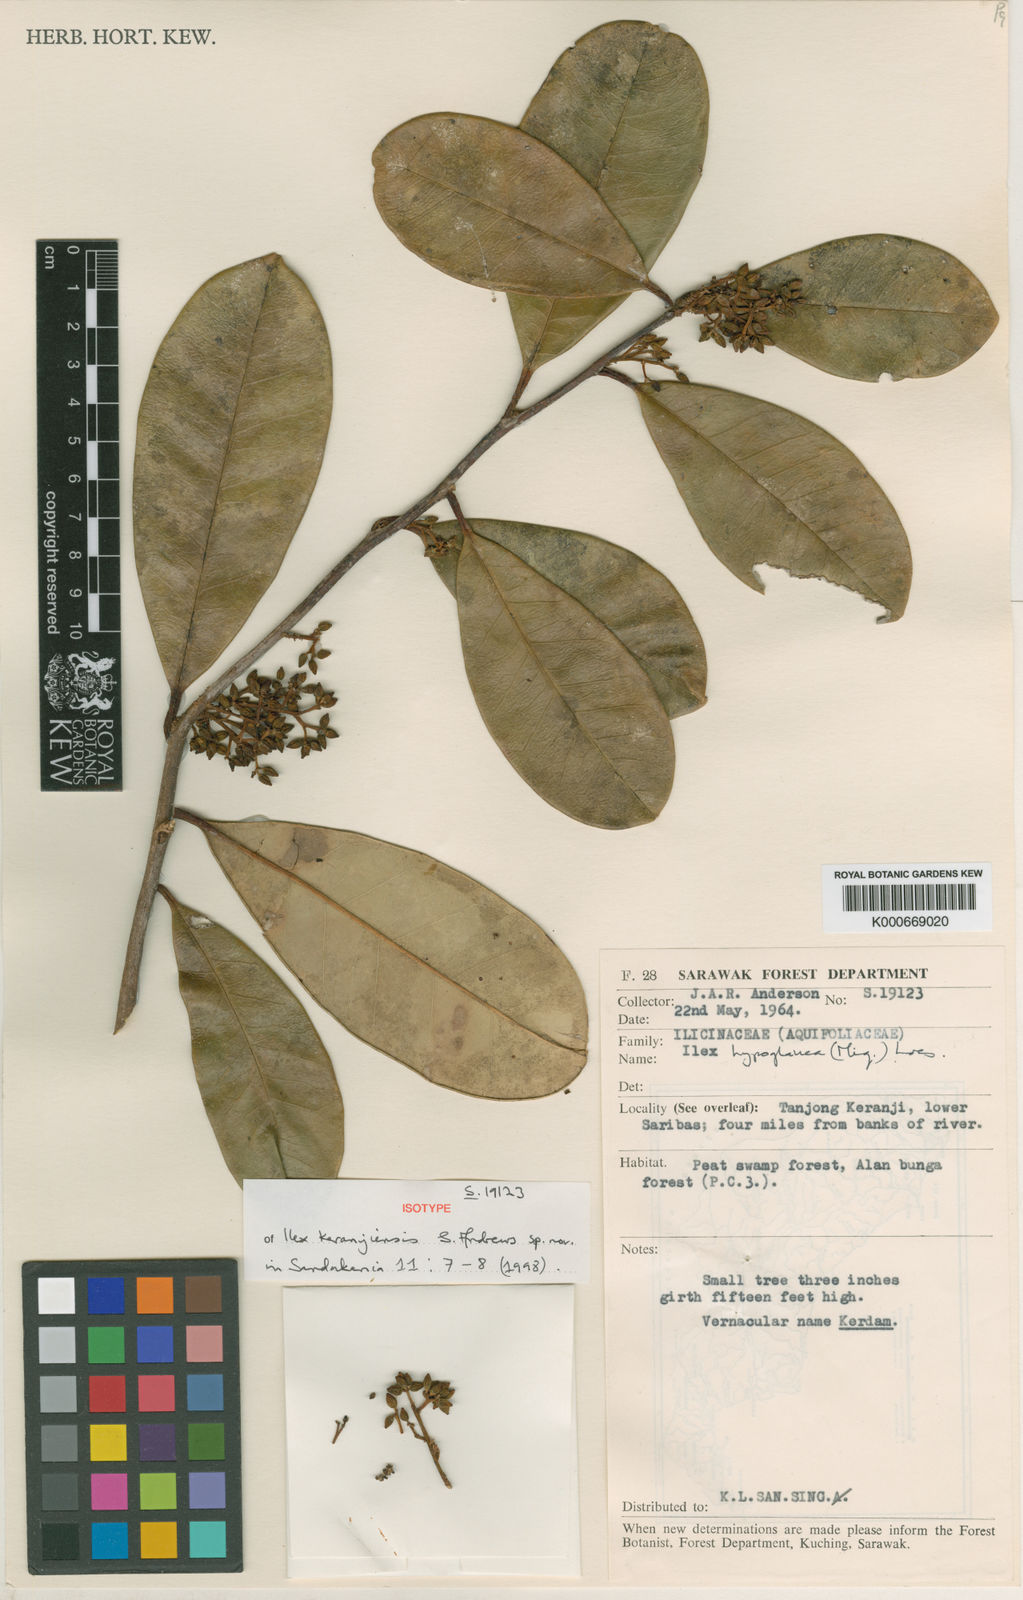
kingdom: Plantae
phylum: Tracheophyta
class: Magnoliopsida
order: Aquifoliales
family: Aquifoliaceae
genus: Ilex
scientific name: Ilex keranjiensis
